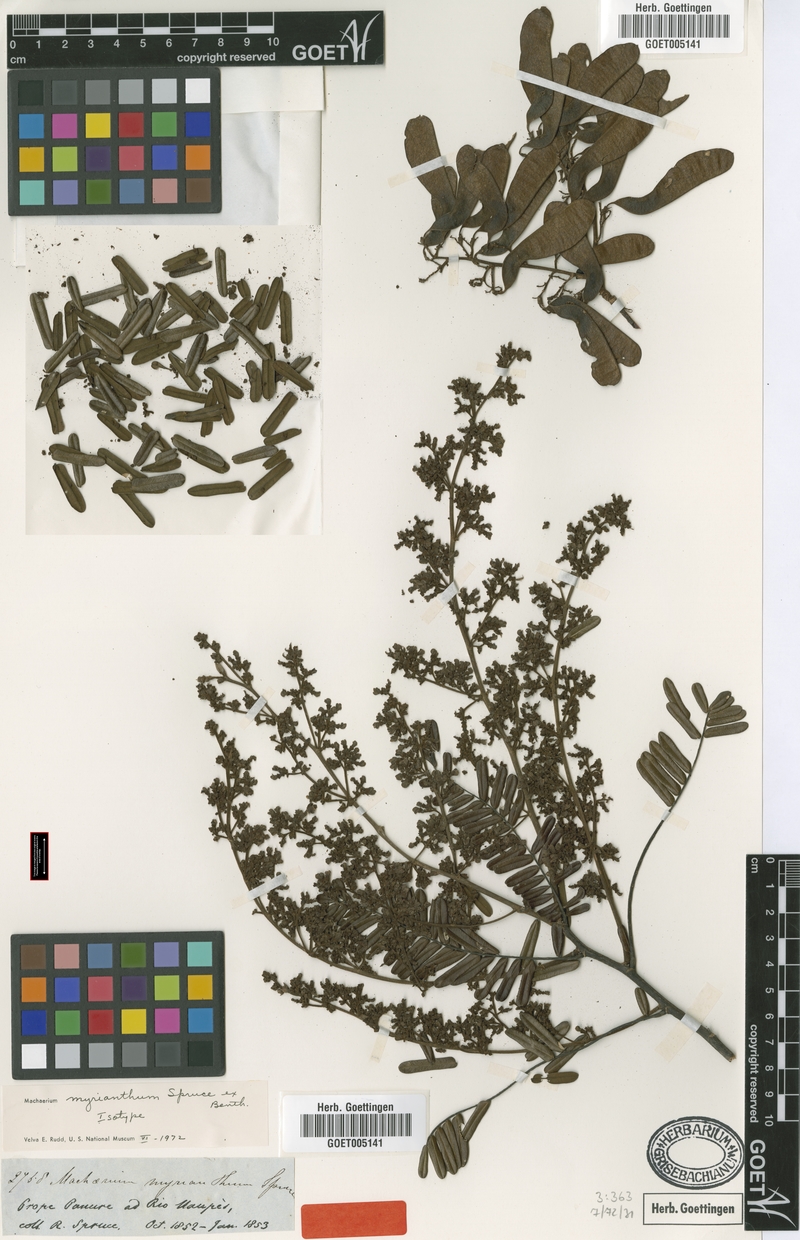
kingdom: Plantae
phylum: Tracheophyta
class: Magnoliopsida
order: Fabales
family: Fabaceae
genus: Machaerium
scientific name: Machaerium myrianthum
